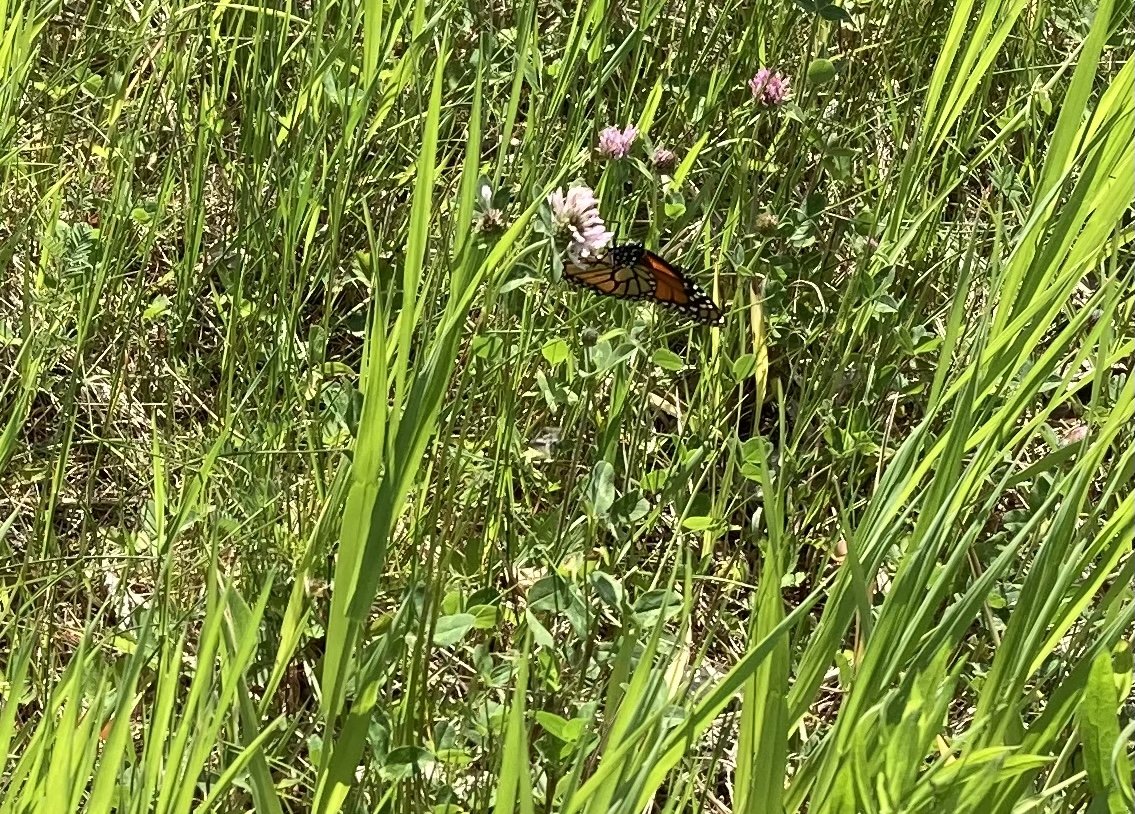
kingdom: Animalia
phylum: Arthropoda
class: Insecta
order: Lepidoptera
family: Nymphalidae
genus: Danaus
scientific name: Danaus plexippus
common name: Monarch
